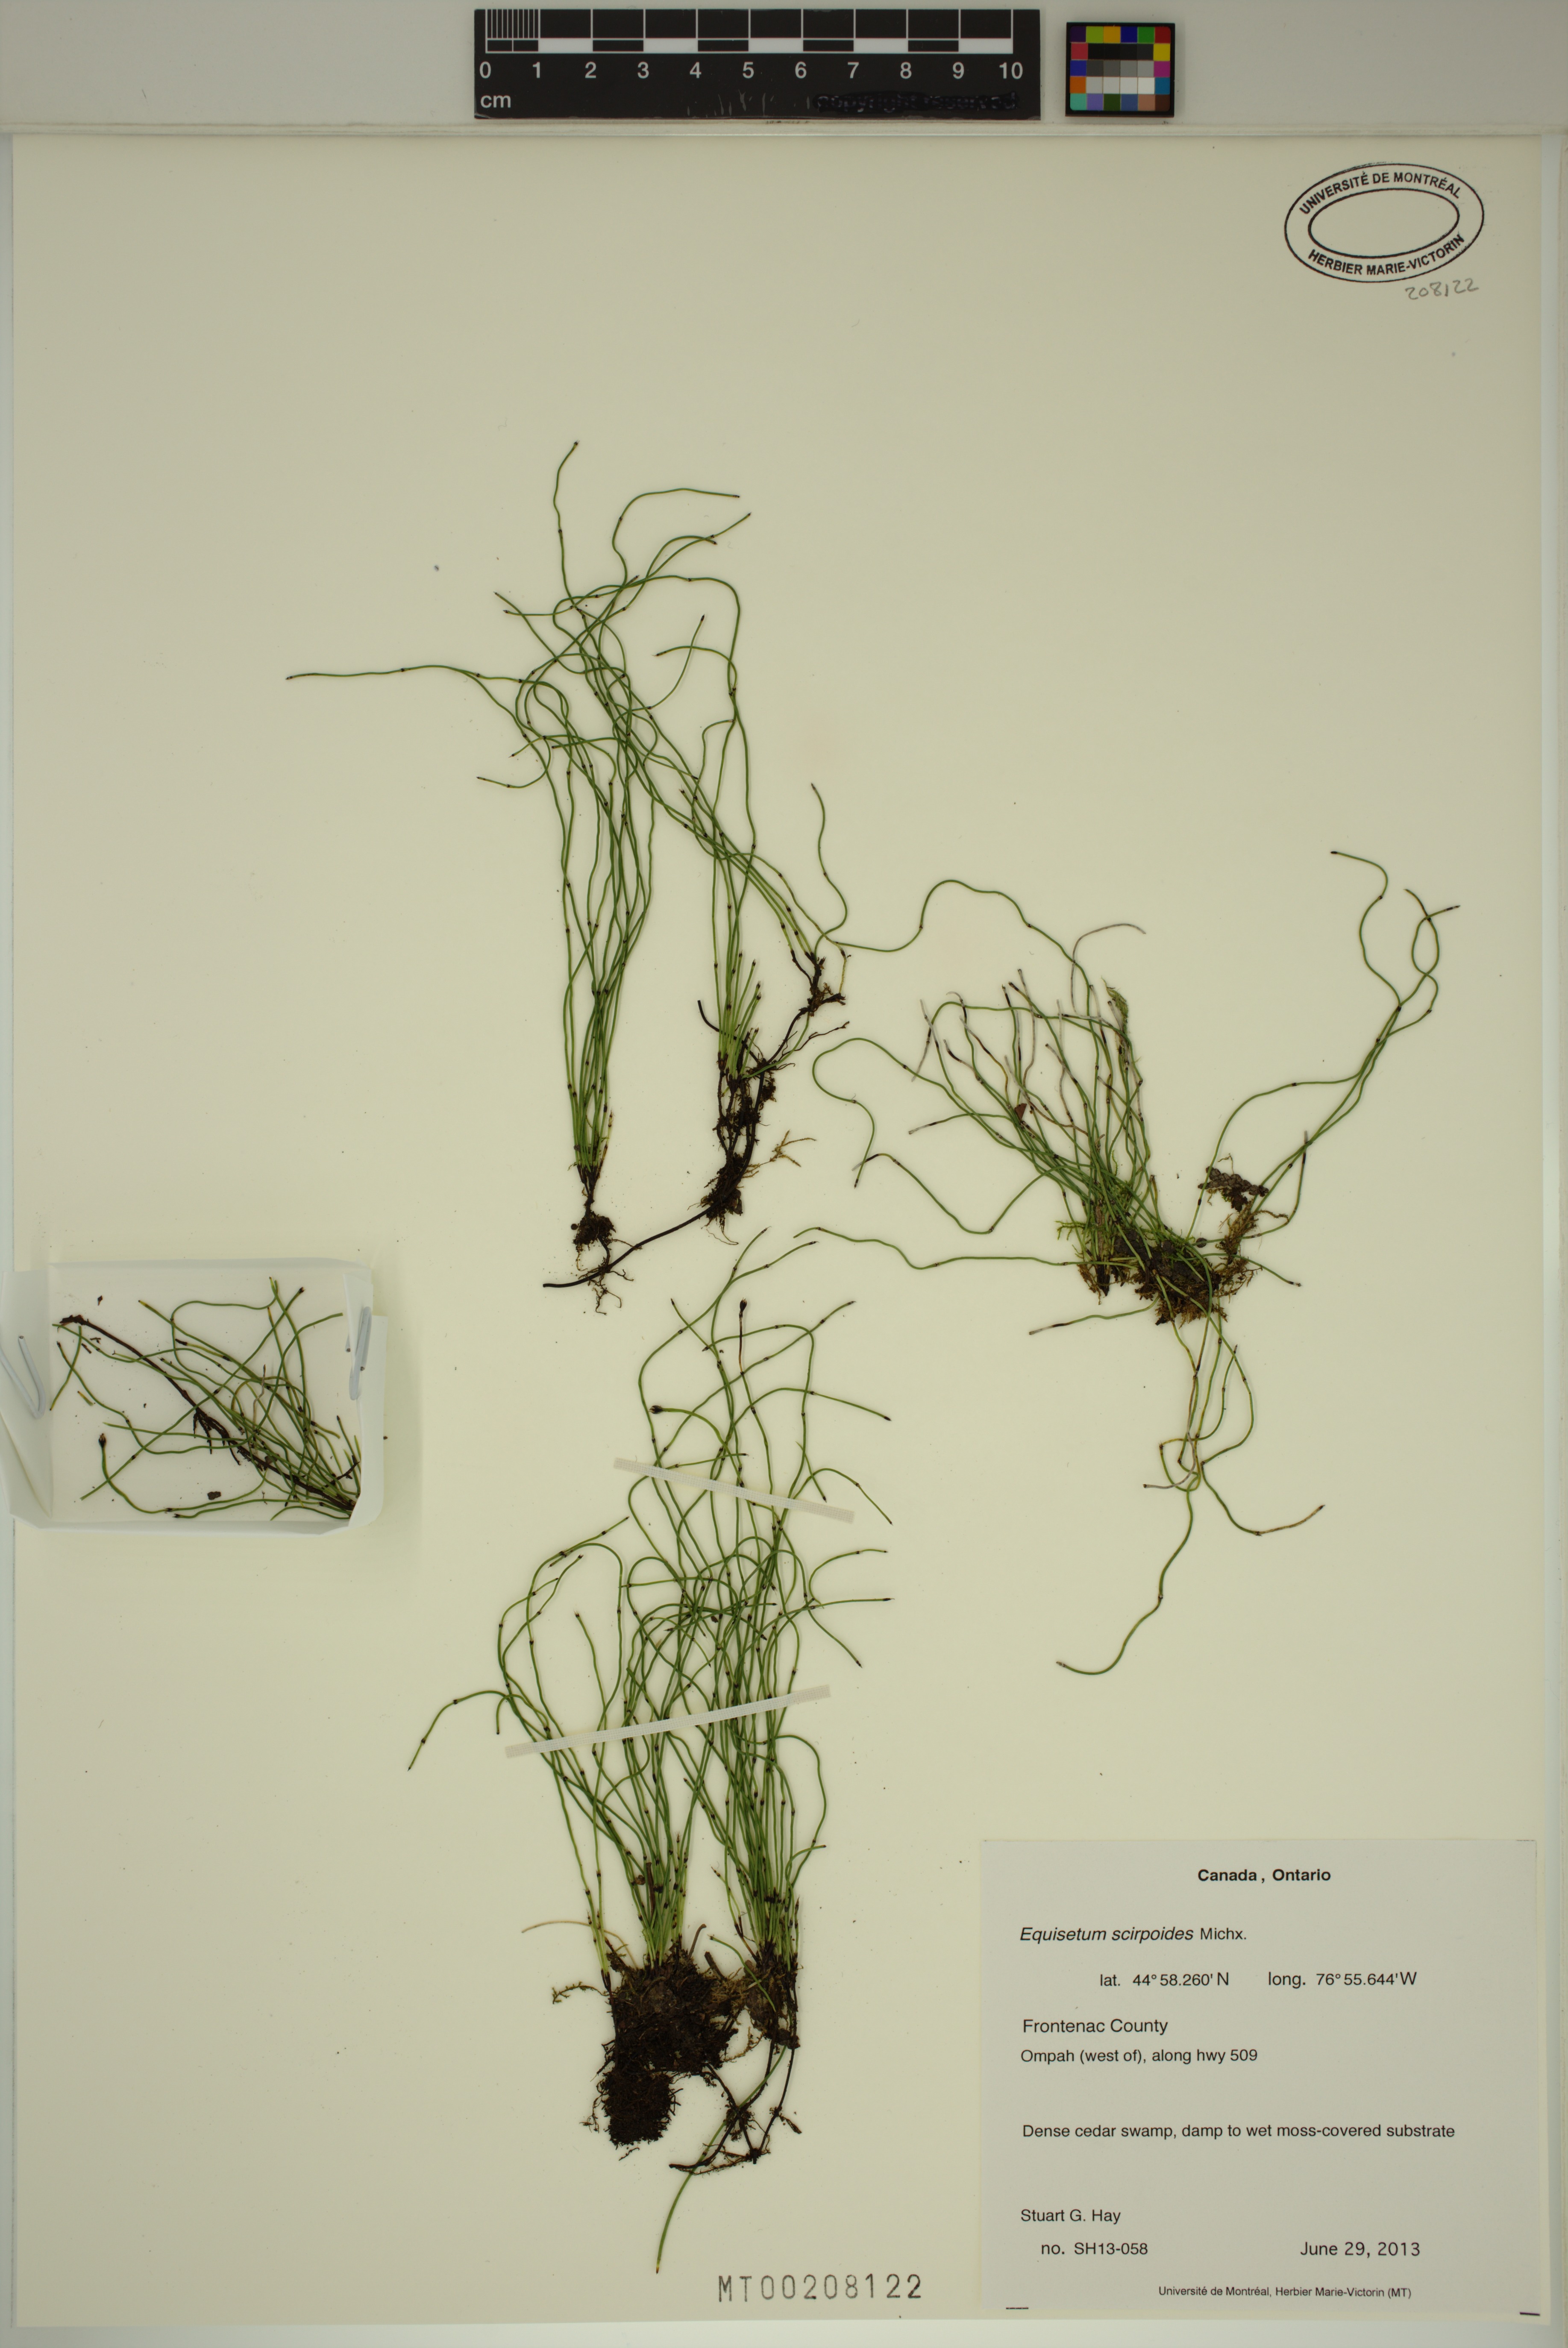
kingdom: Plantae
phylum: Tracheophyta
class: Polypodiopsida
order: Equisetales
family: Equisetaceae
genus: Equisetum
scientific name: Equisetum scirpoides
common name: Delicate horsetail
